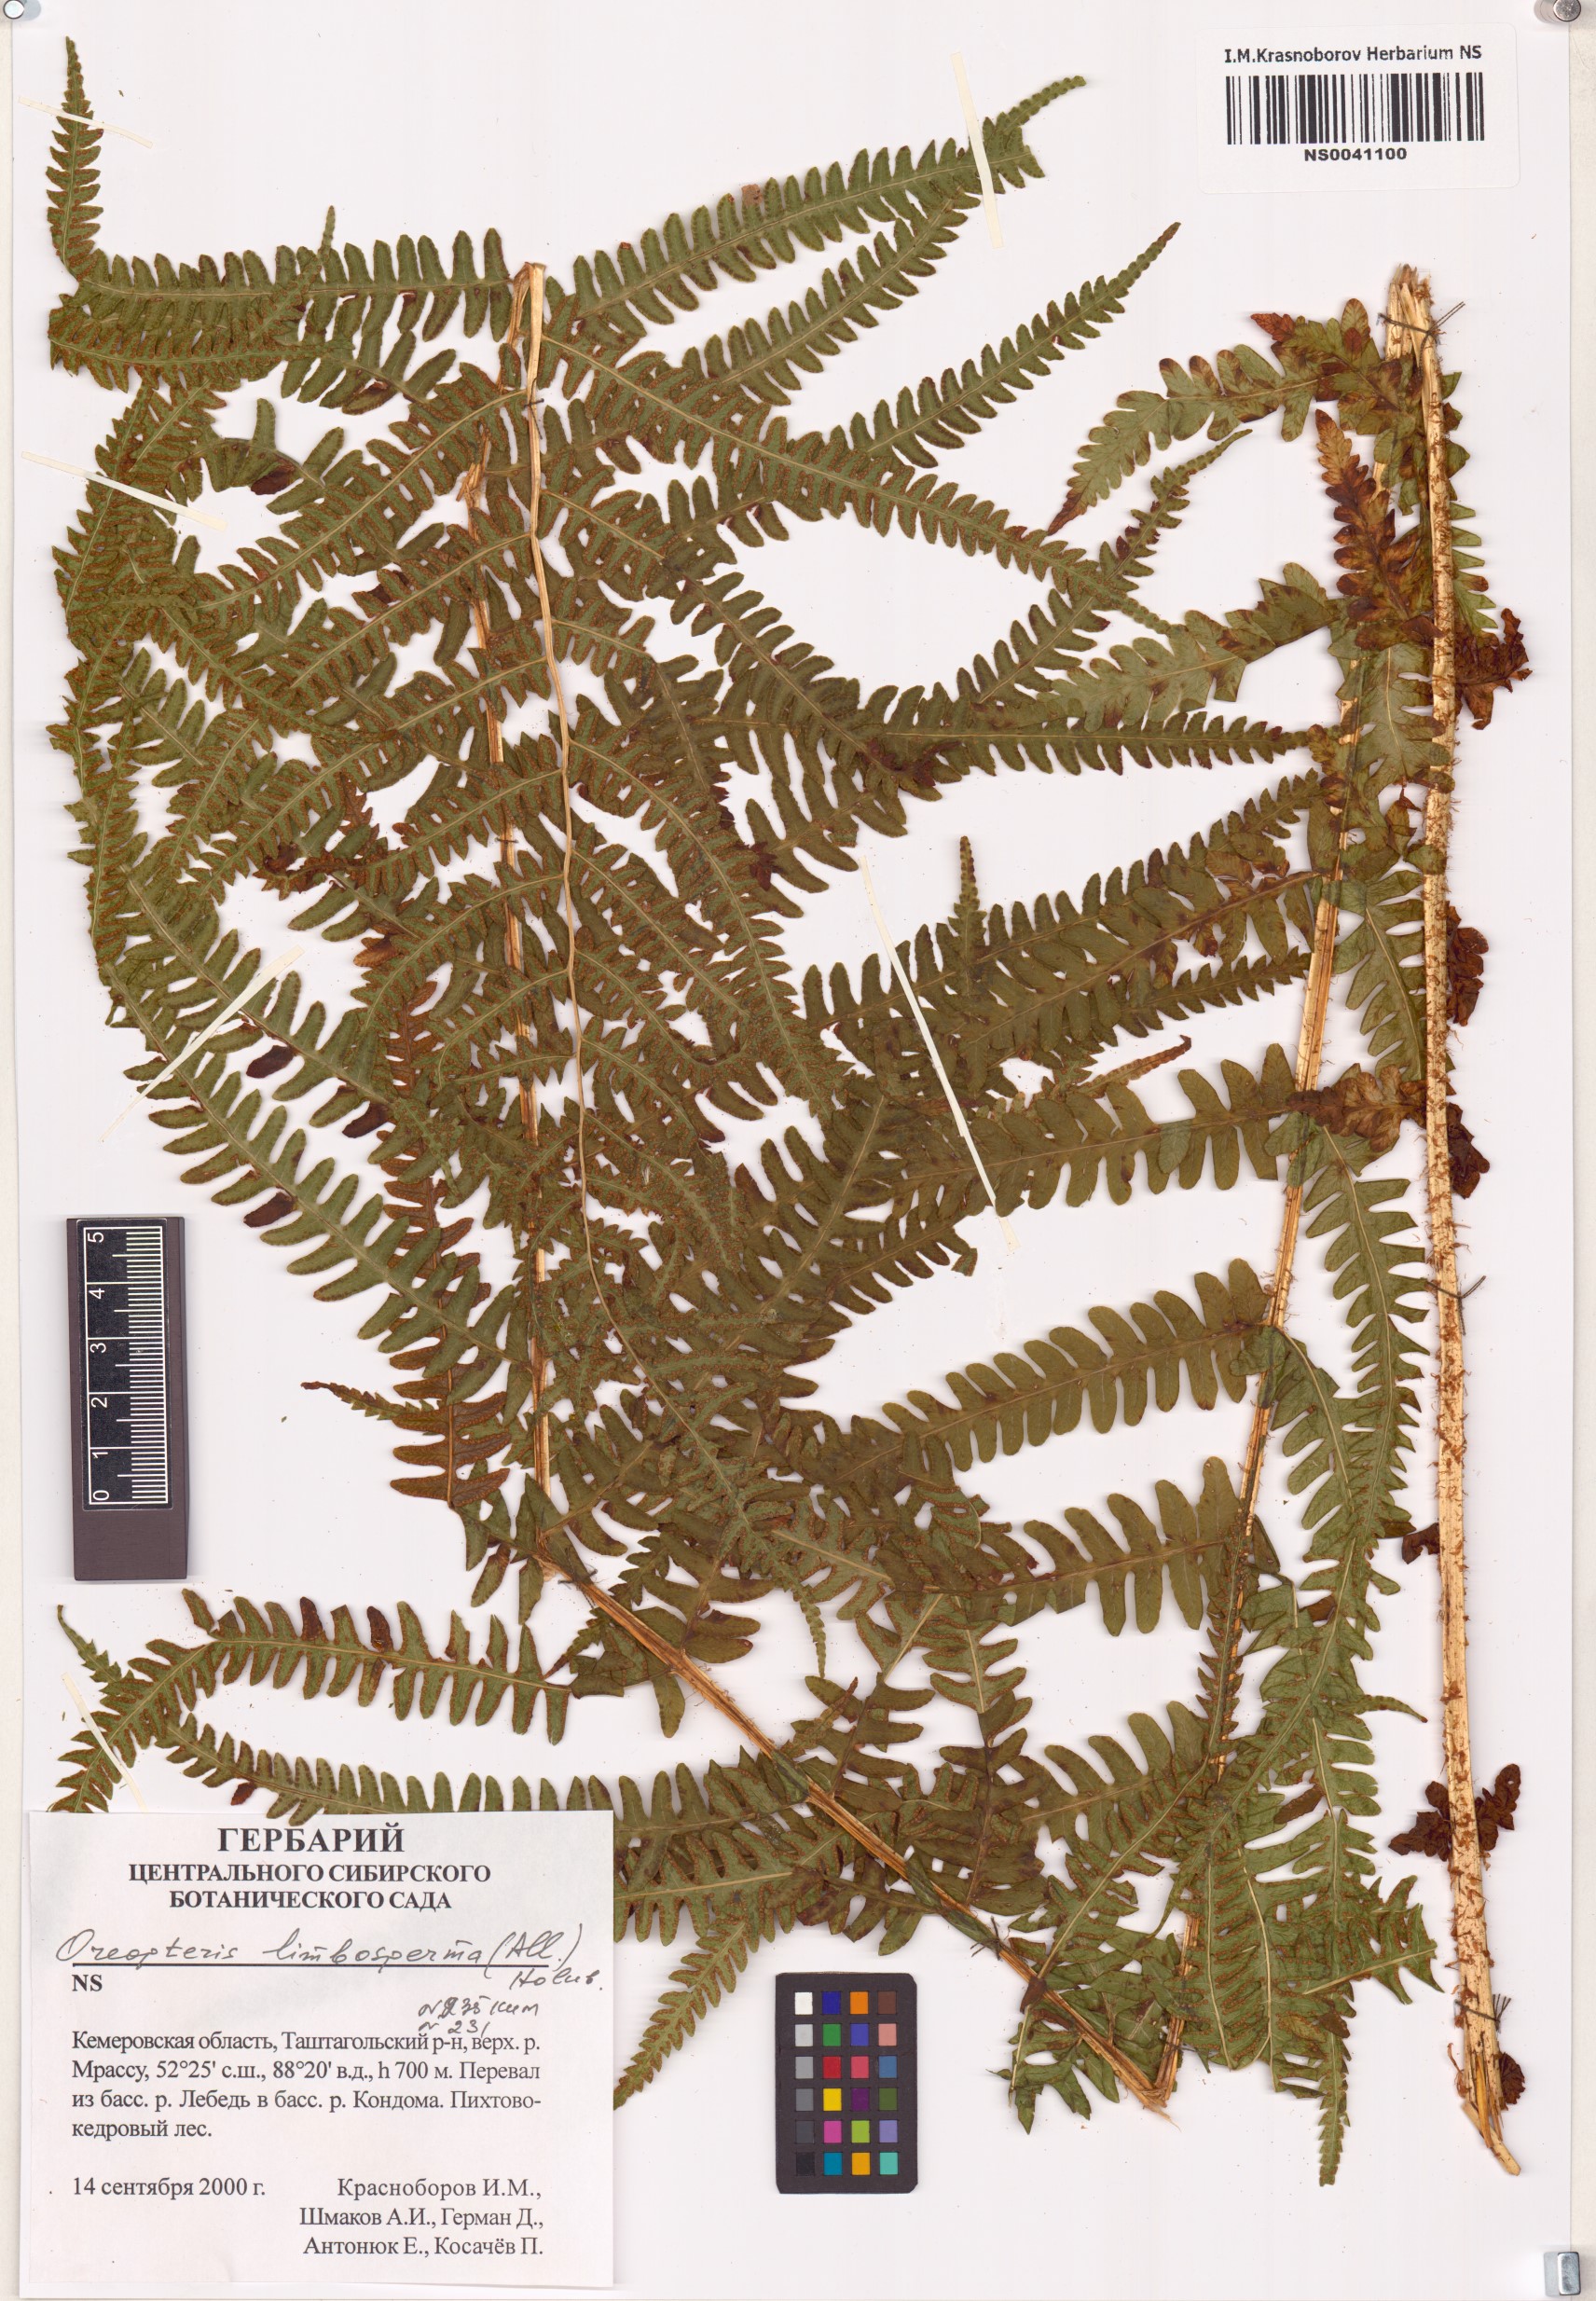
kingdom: Plantae
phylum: Tracheophyta
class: Polypodiopsida
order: Polypodiales
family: Thelypteridaceae
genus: Oreopteris
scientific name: Oreopteris limbosperma
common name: Lemon-scented fern
